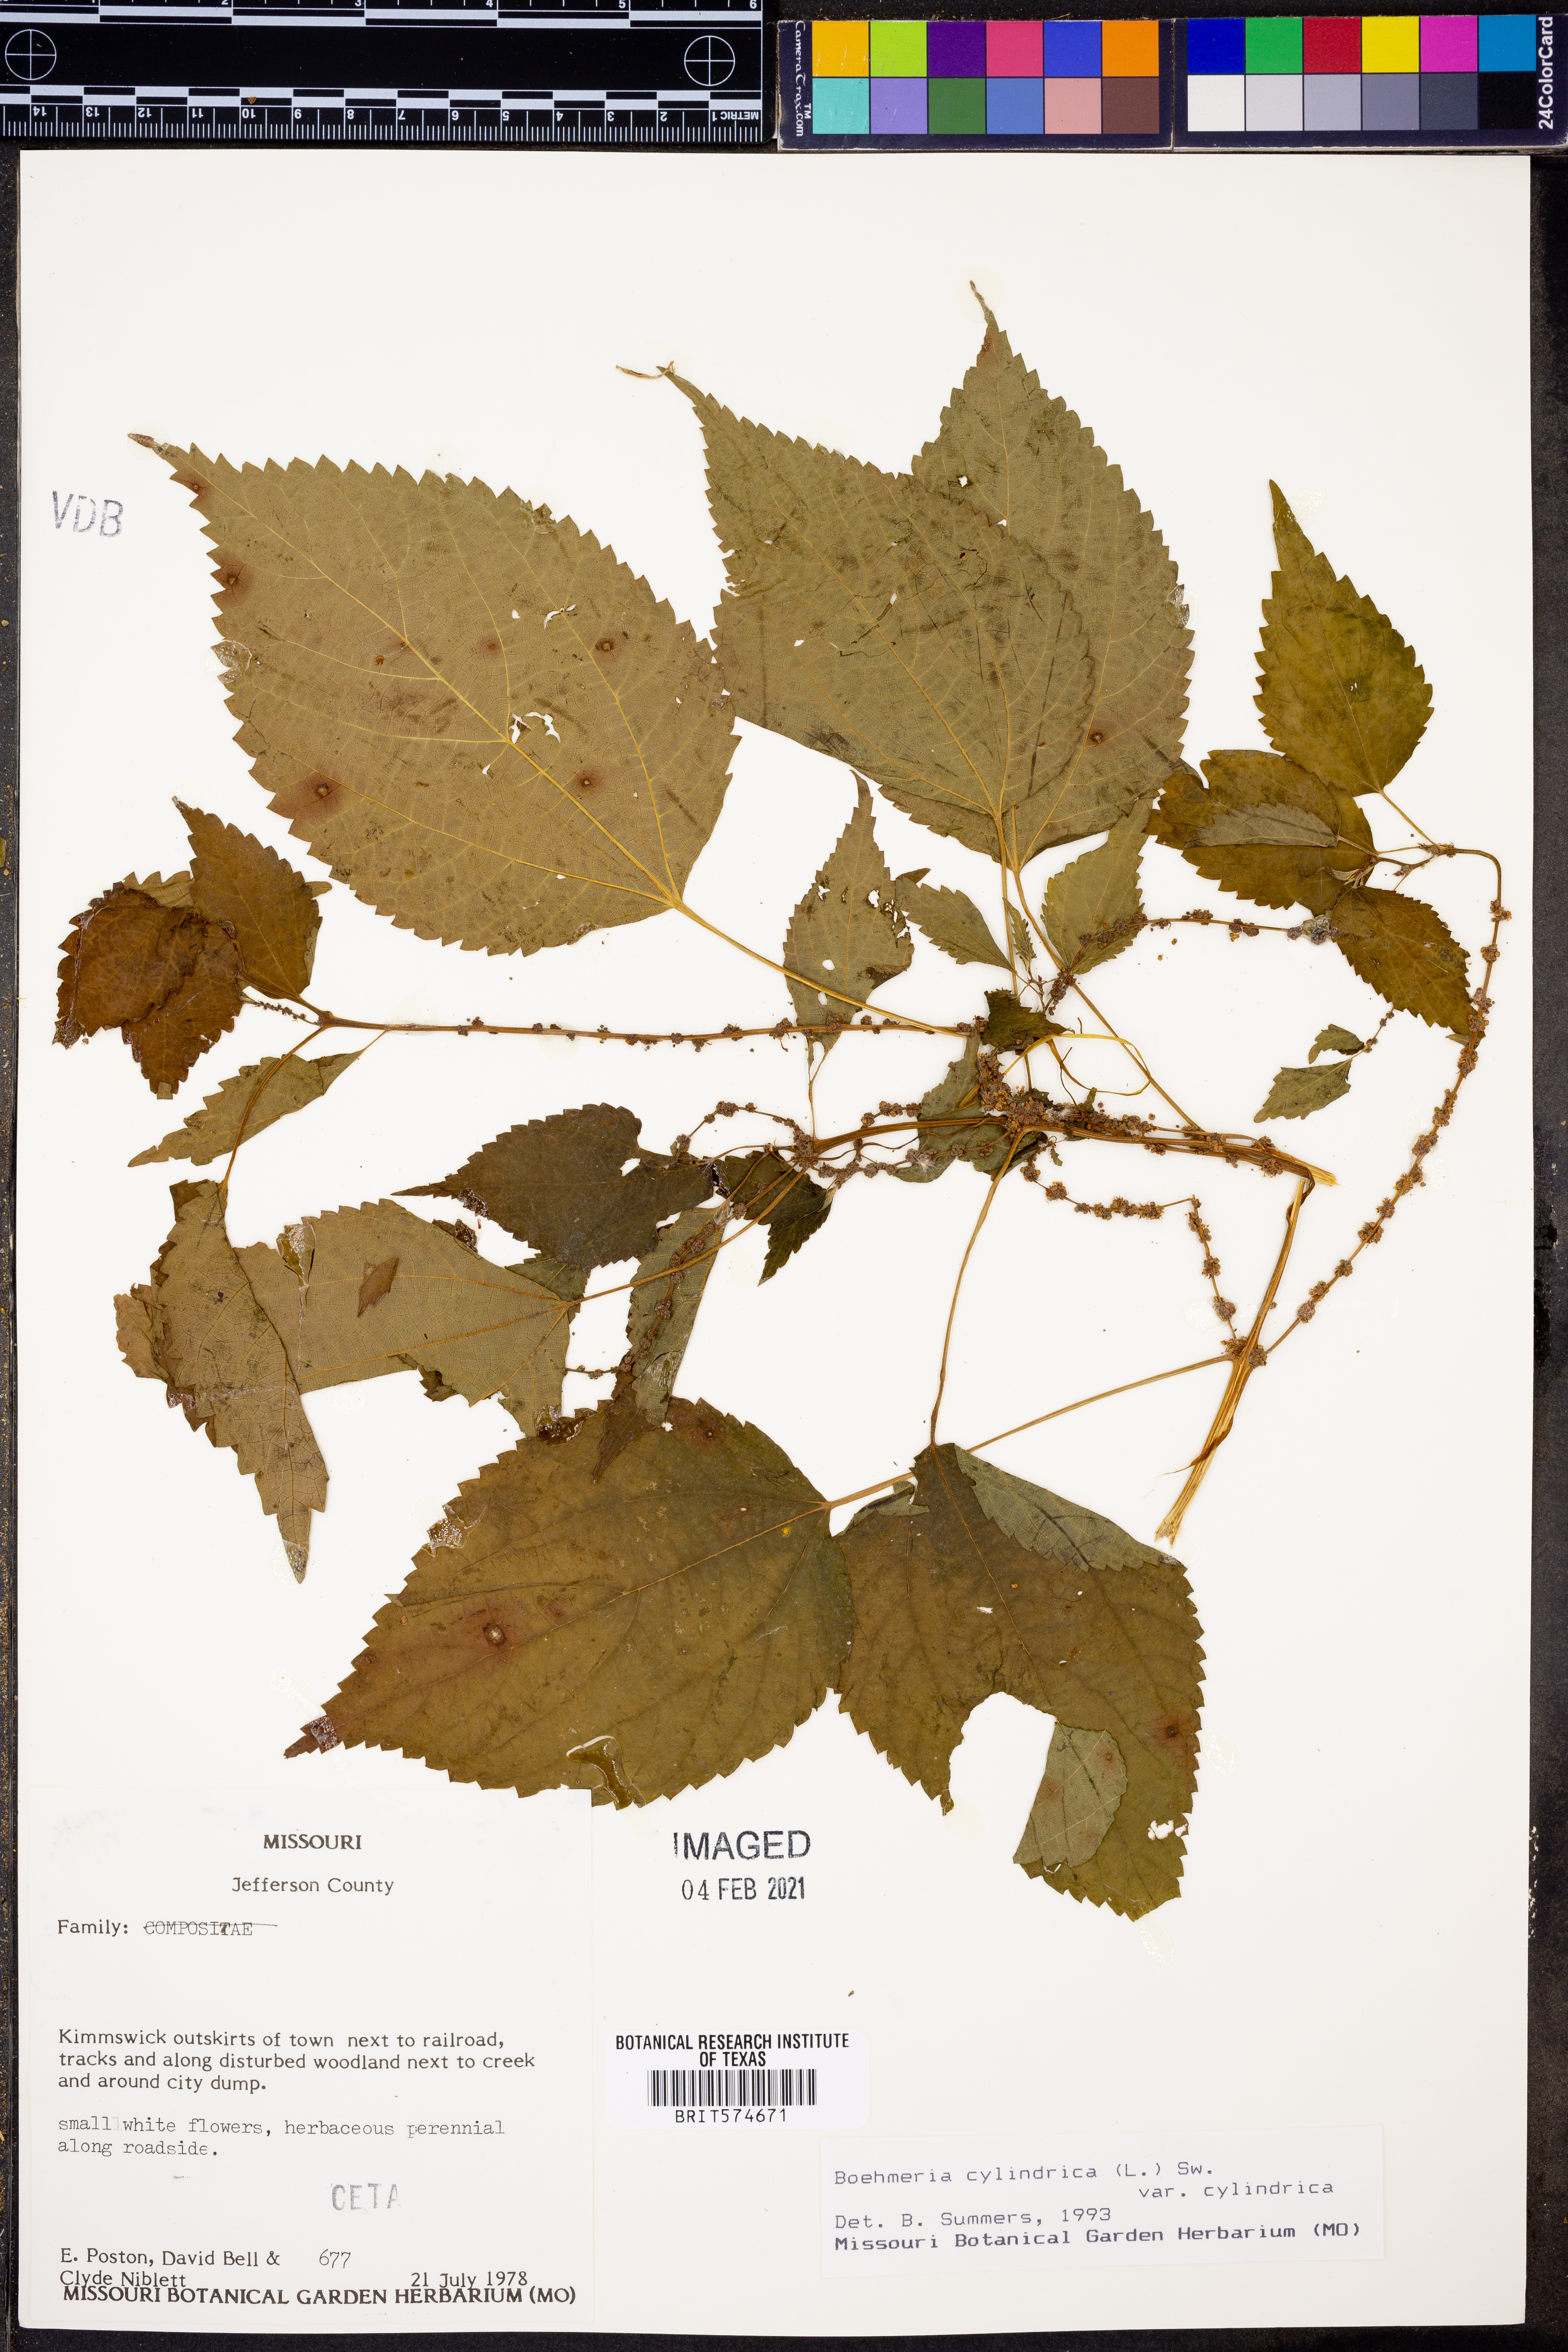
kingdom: Plantae
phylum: Tracheophyta
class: Magnoliopsida
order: Rosales
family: Urticaceae
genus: Boehmeria
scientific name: Boehmeria cylindrica
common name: Bog-hemp
